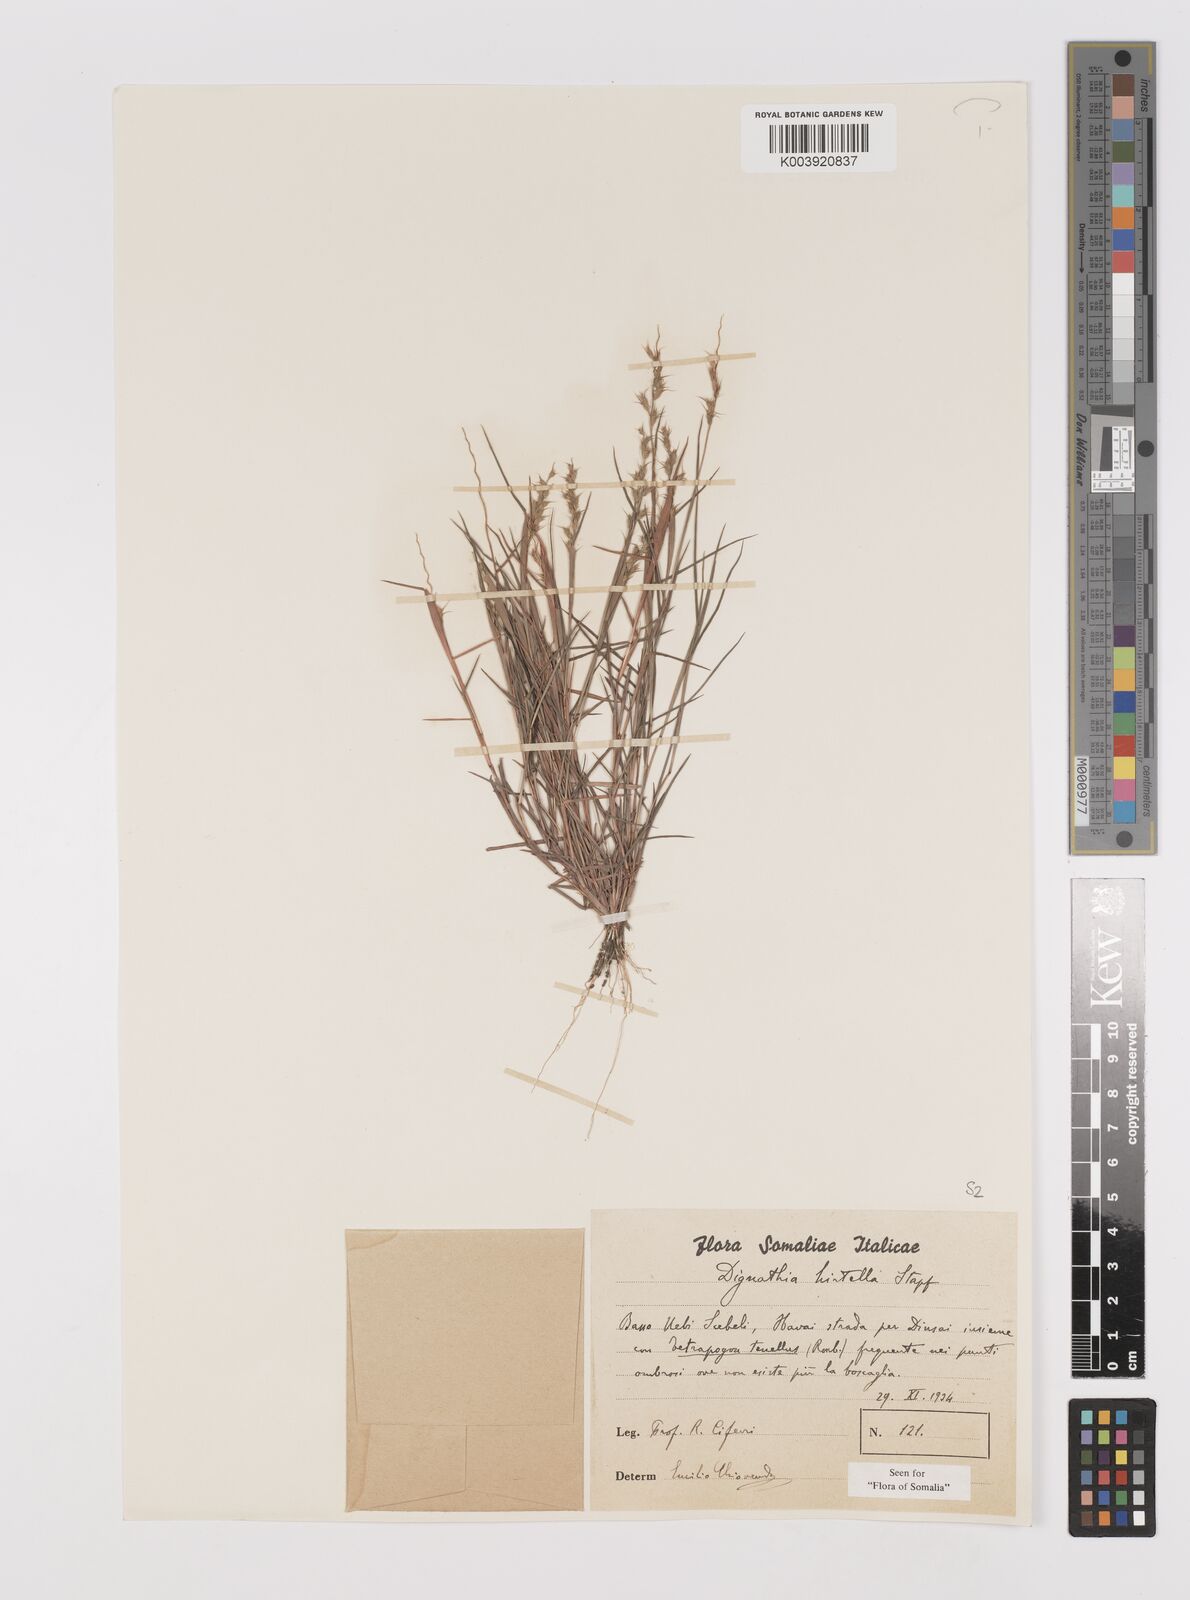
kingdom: Plantae
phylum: Tracheophyta
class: Liliopsida
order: Poales
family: Poaceae
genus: Dignathia
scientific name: Dignathia hirtella
